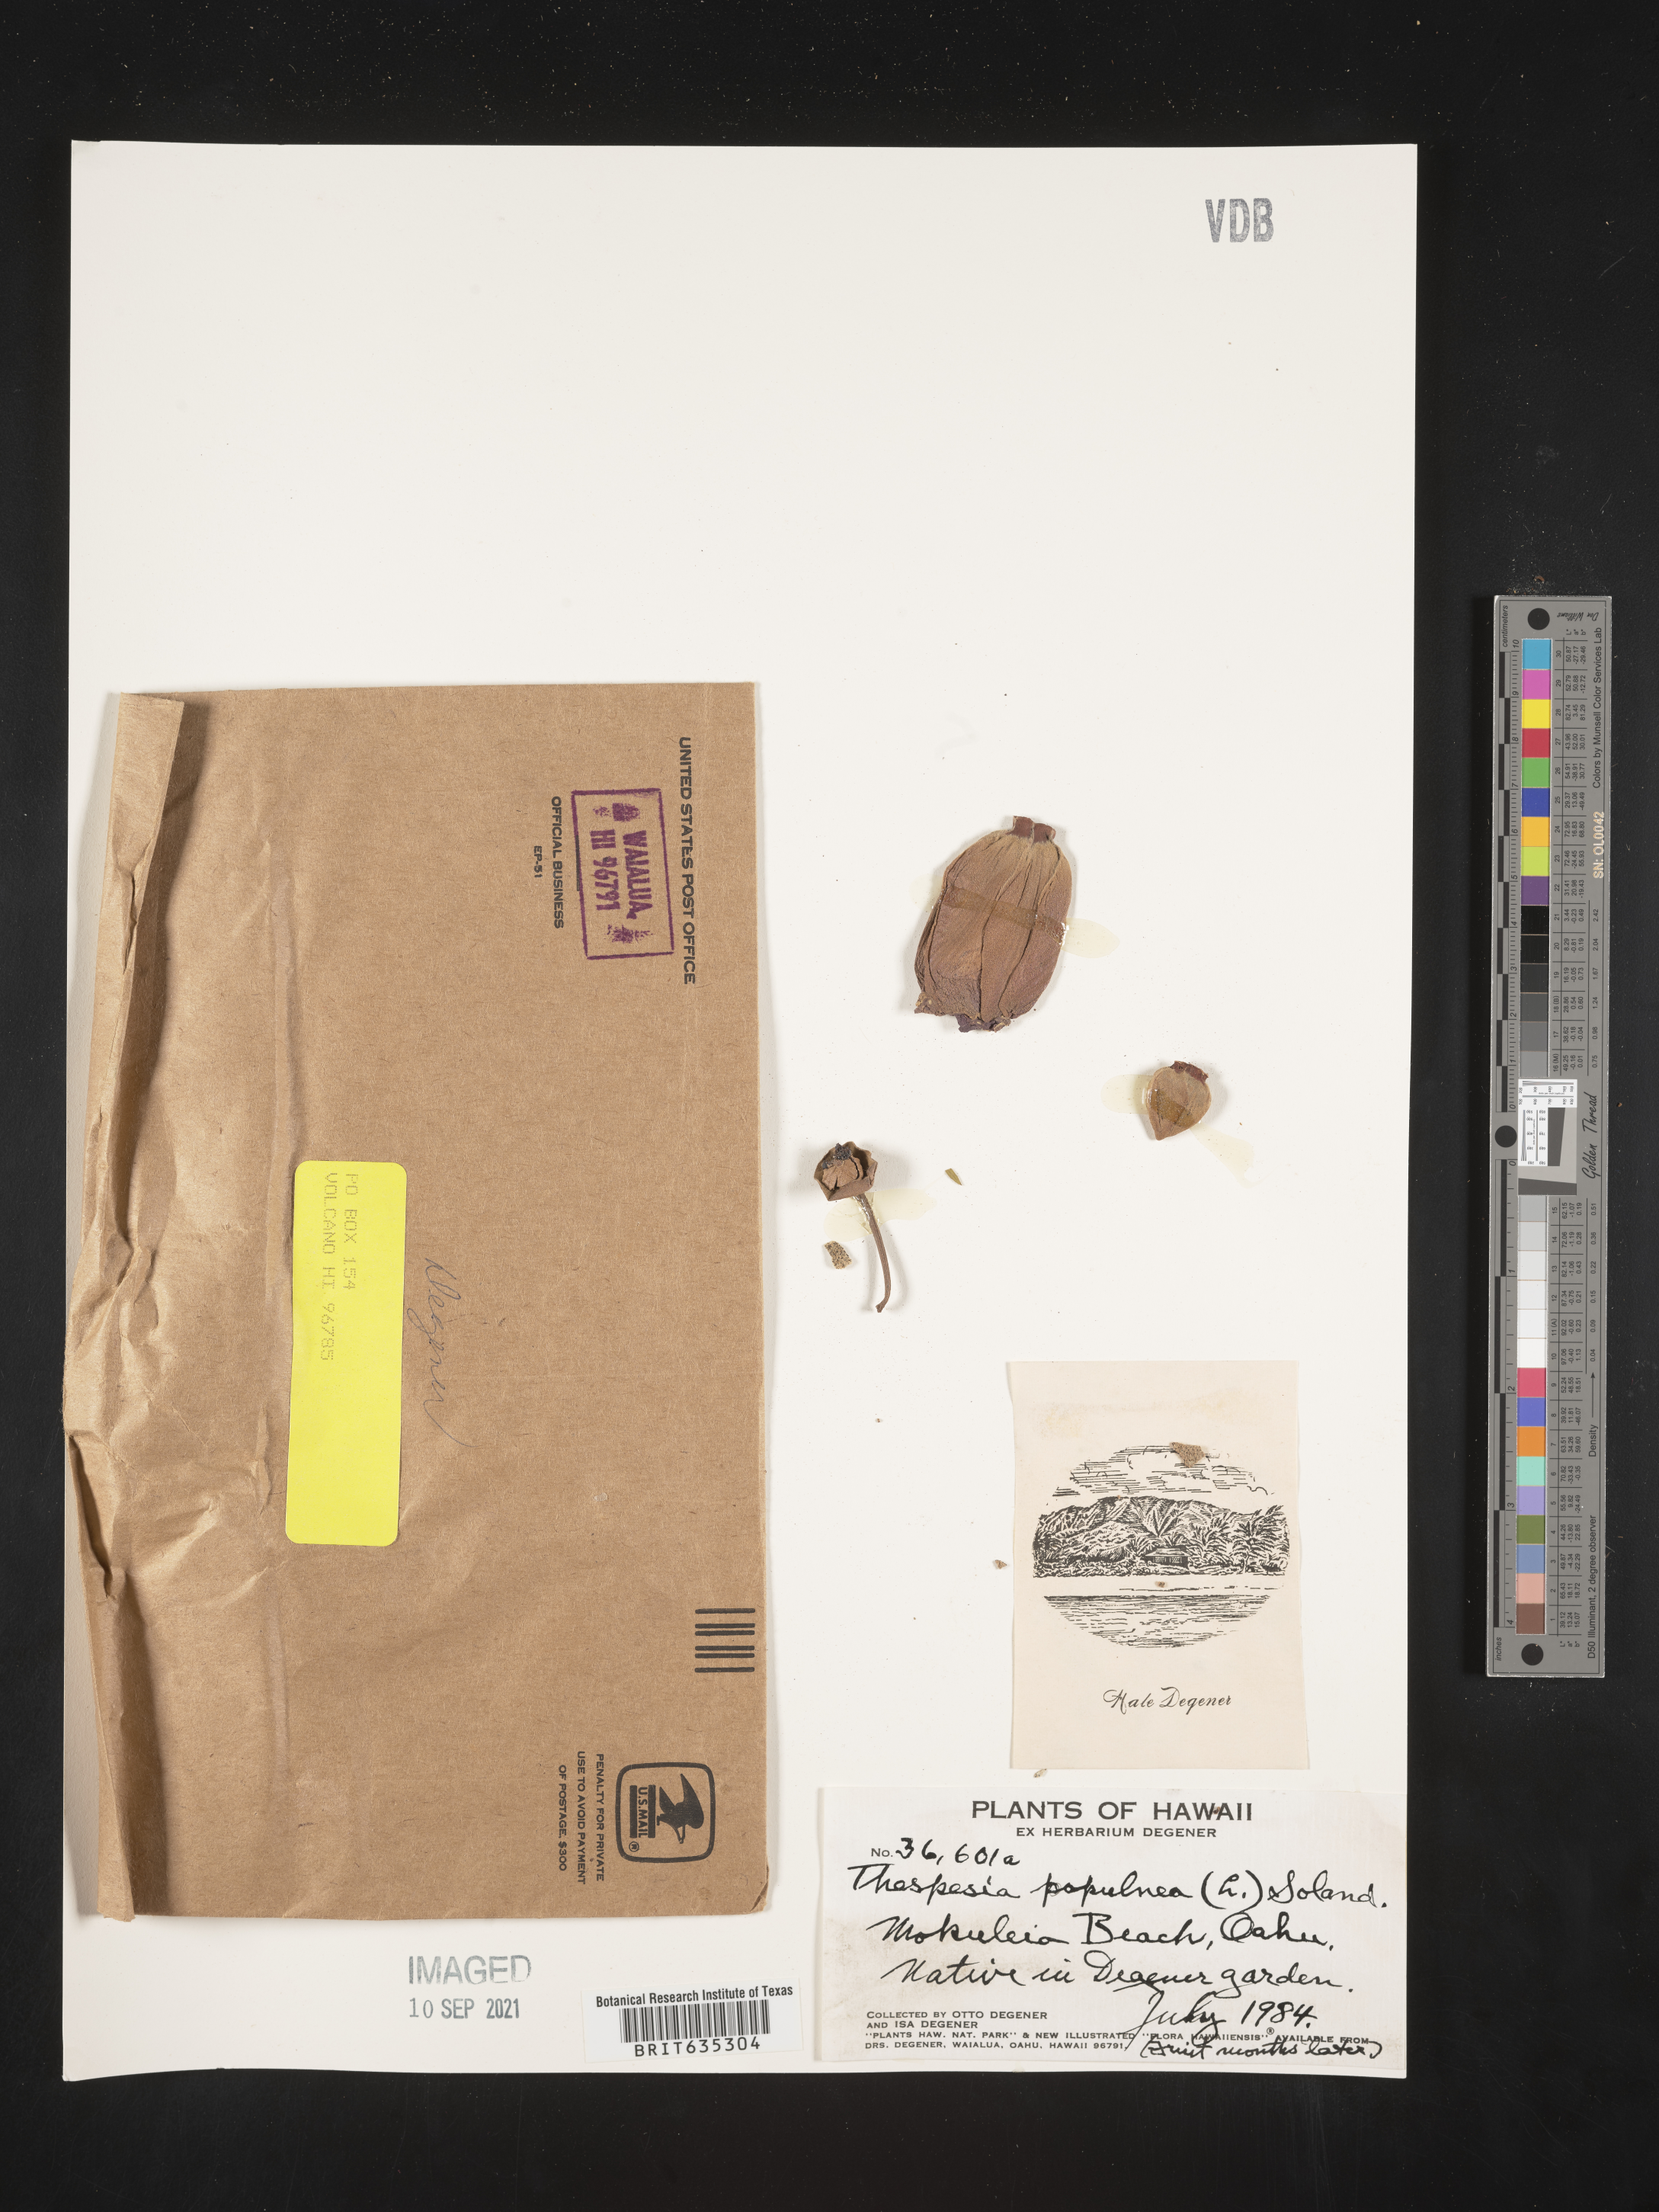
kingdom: Plantae
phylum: Tracheophyta
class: Magnoliopsida
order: Malvales
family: Malvaceae
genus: Thespesia
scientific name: Thespesia
